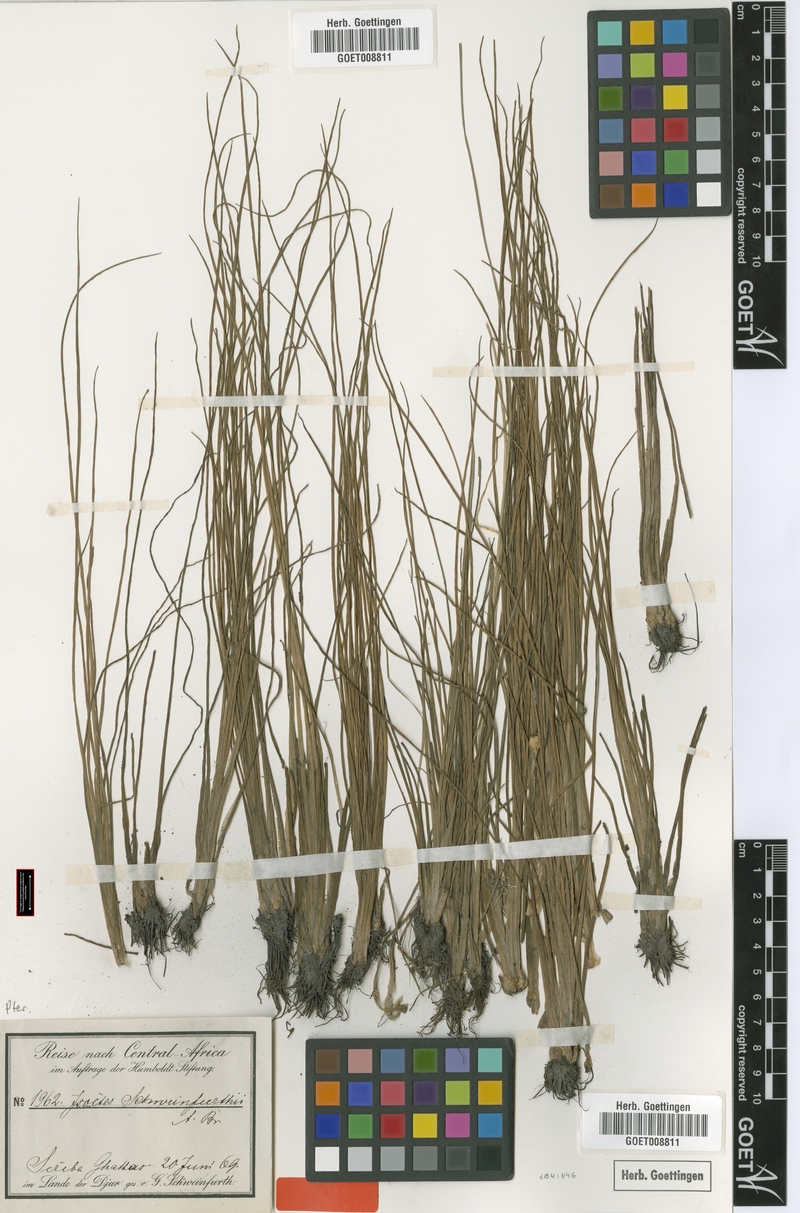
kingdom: Plantae
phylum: Tracheophyta
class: Lycopodiopsida
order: Isoetales
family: Isoetaceae
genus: Isoetes
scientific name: Isoetes schweinfurthii
